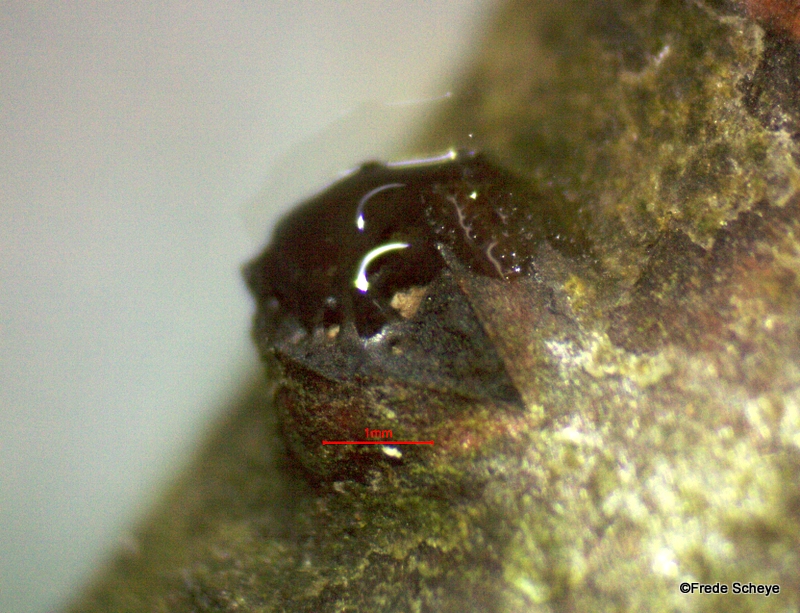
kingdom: Fungi
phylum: Ascomycota
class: Sordariomycetes
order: Xylariales
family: Diatrypaceae
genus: Diatrypella
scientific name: Diatrypella favacea
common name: klemt kulskorpe
